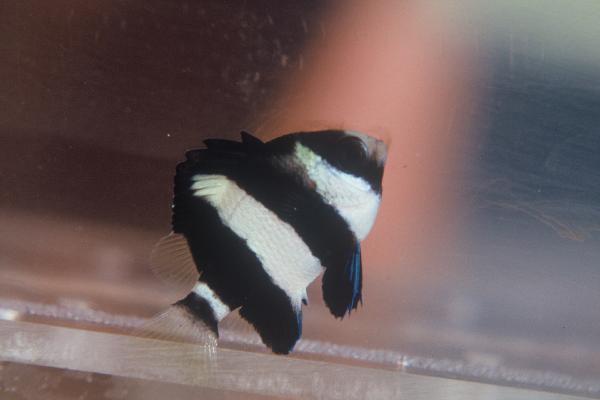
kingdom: Animalia
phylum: Chordata
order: Perciformes
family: Pomacentridae
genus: Dascyllus
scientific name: Dascyllus aruanus
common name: Humbug dascyllus
